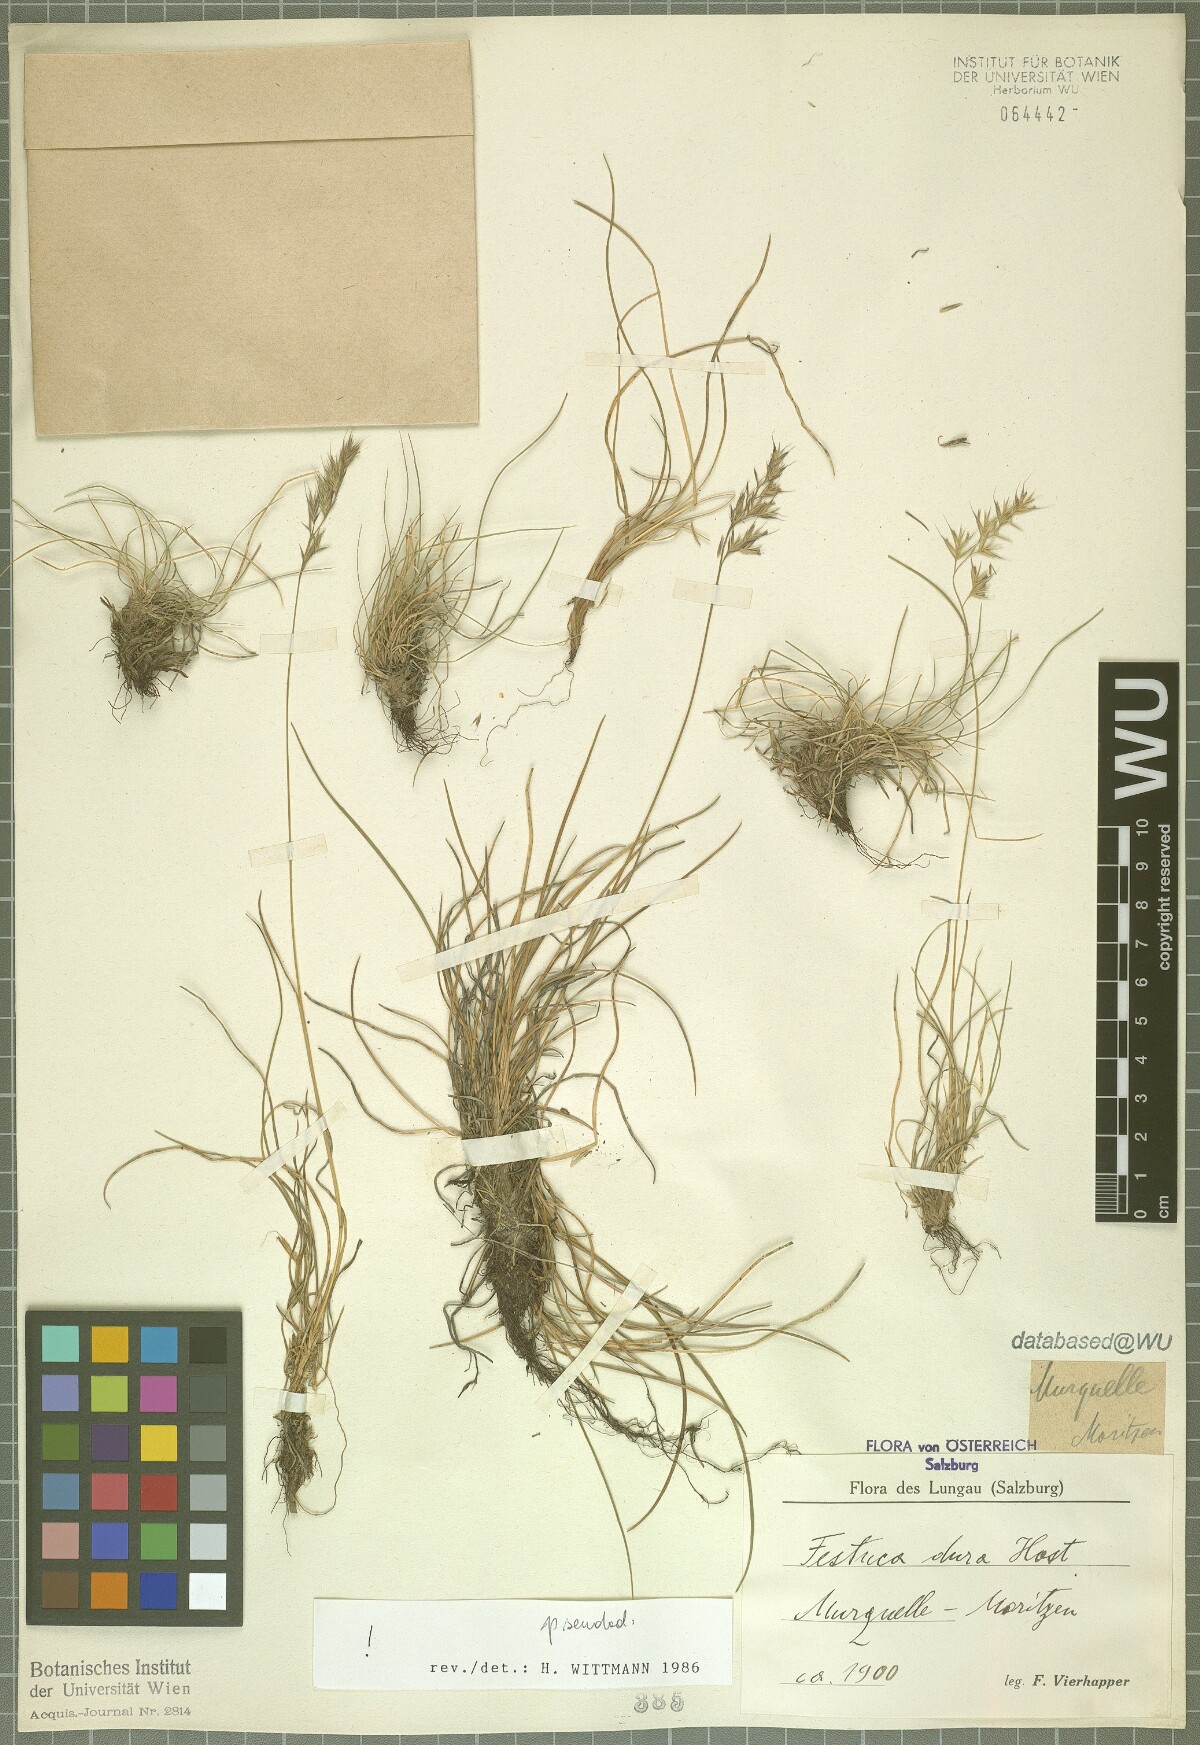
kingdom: Plantae
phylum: Tracheophyta
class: Liliopsida
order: Poales
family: Poaceae
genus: Festuca
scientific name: Festuca pseudodura
